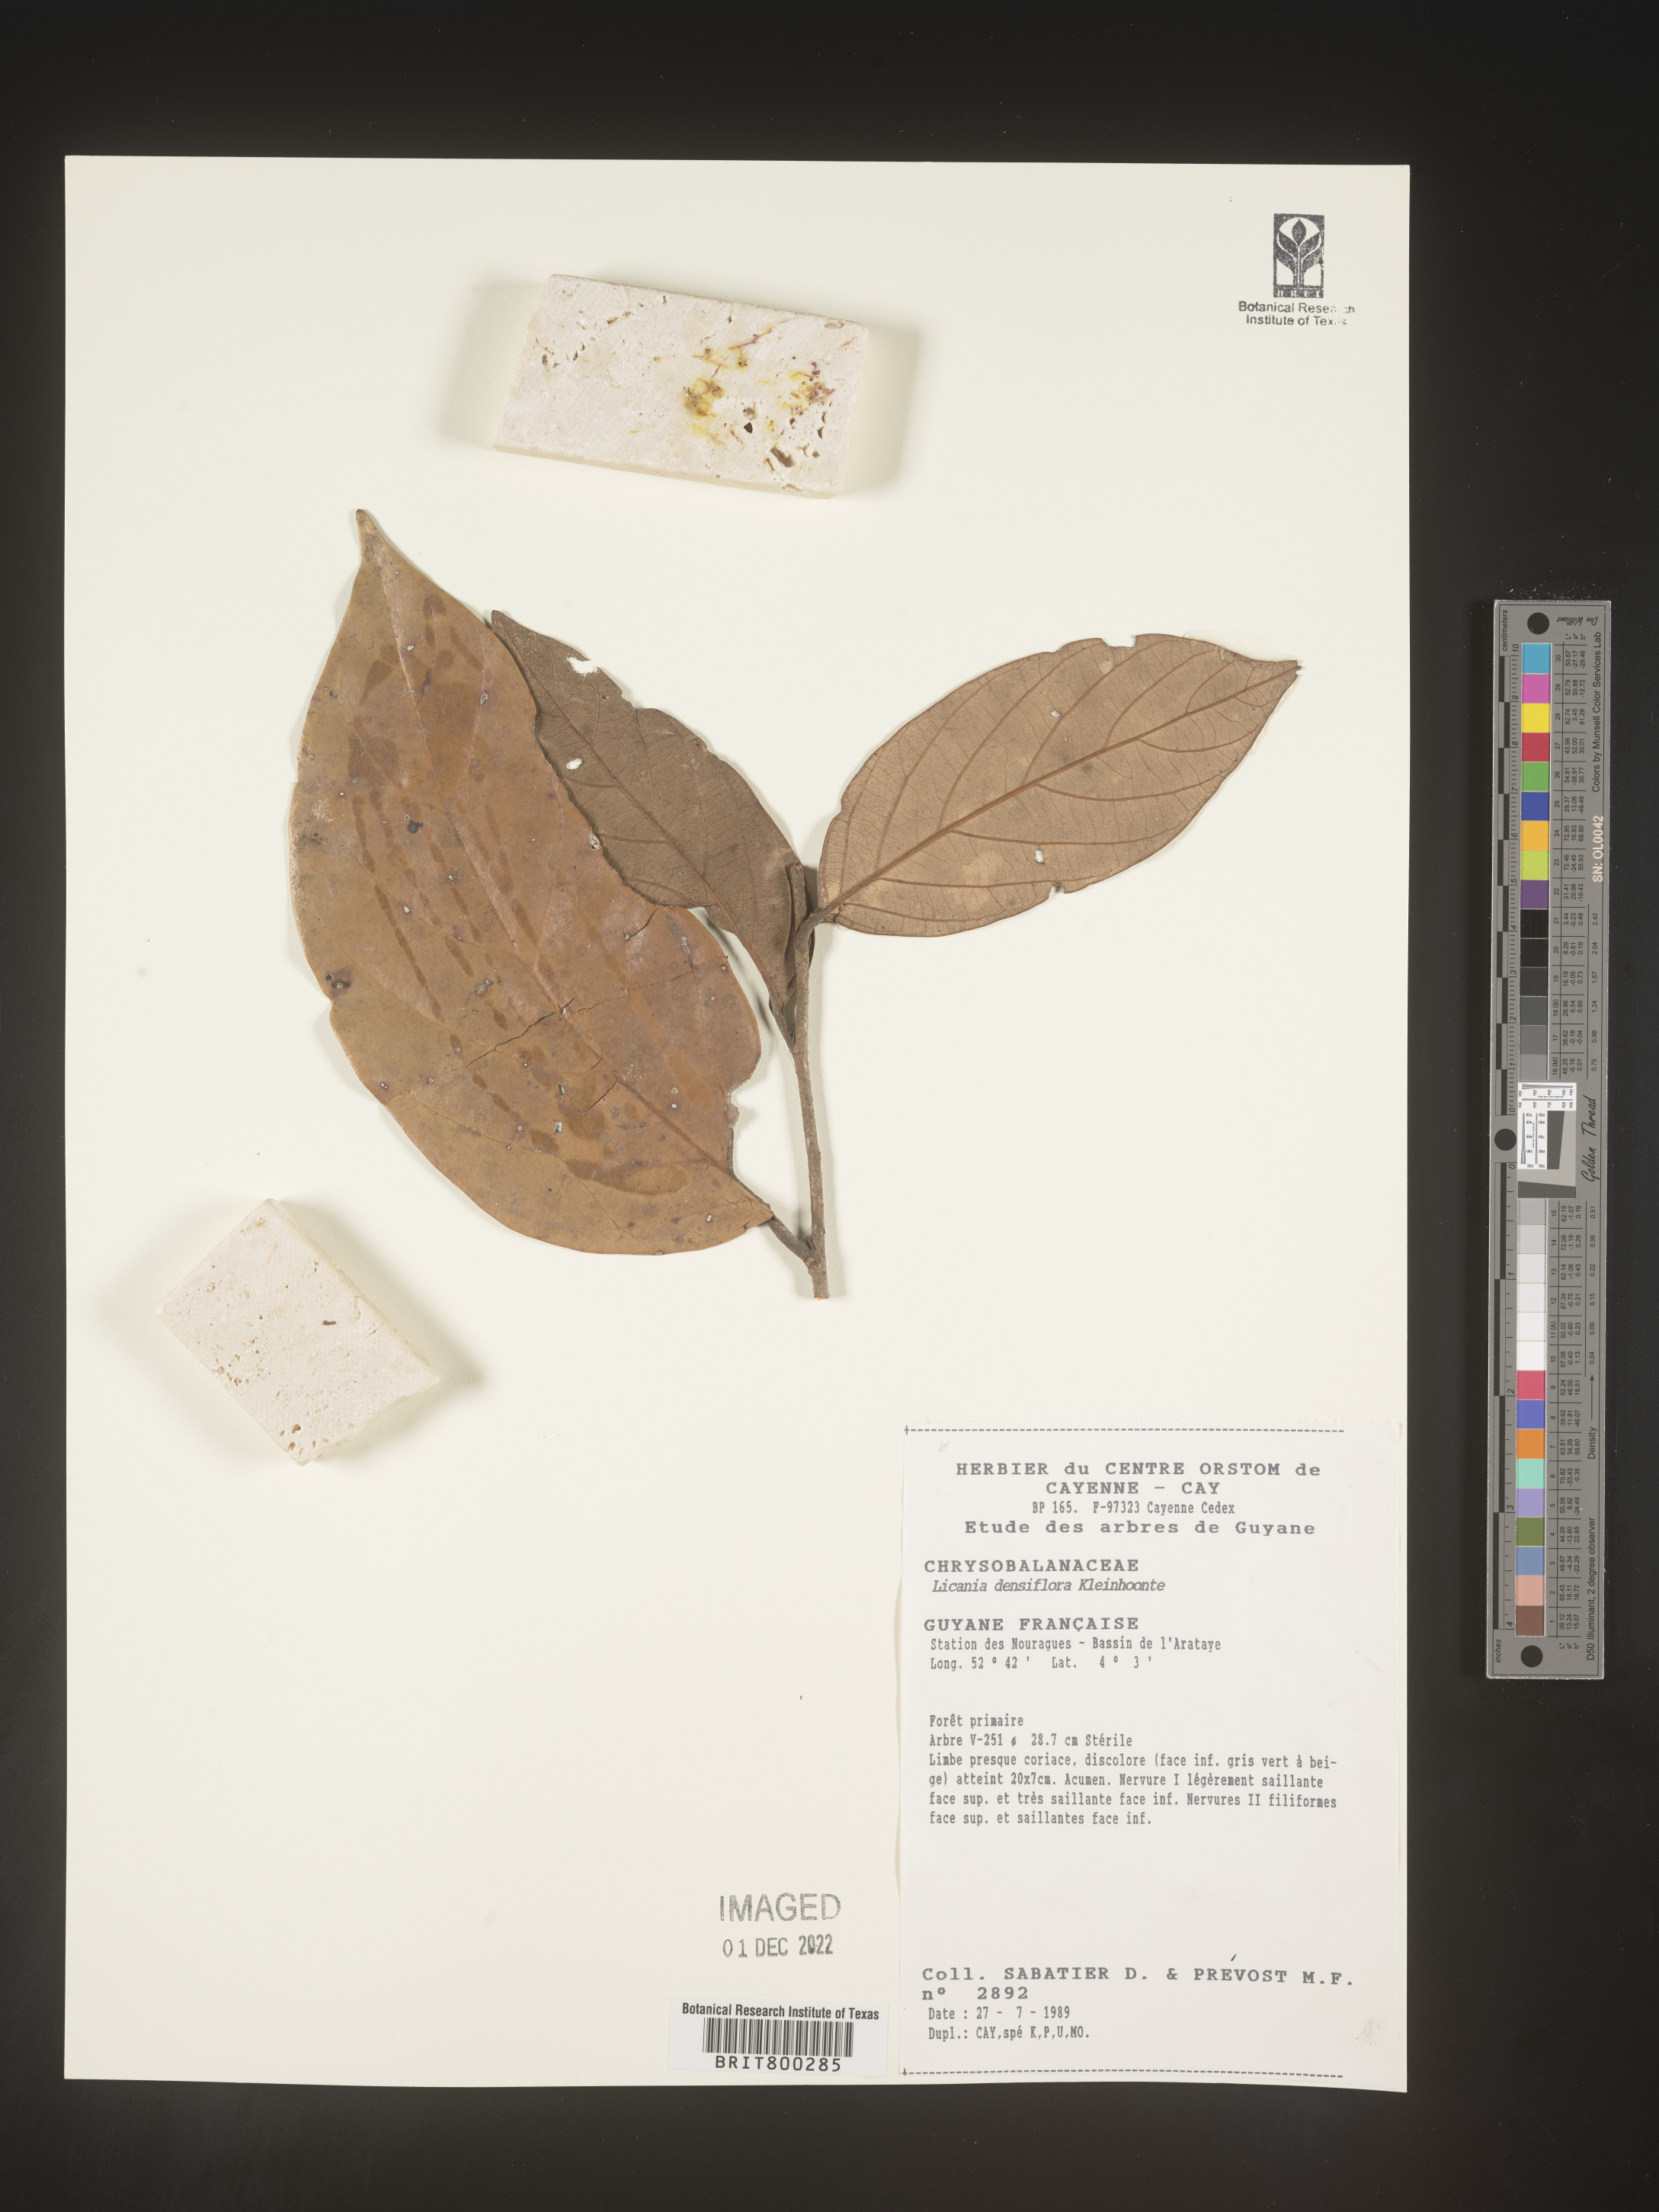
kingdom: Plantae
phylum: Tracheophyta
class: Magnoliopsida
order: Malpighiales
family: Chrysobalanaceae
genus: Geobalanus
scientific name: Geobalanus oblongifolius
